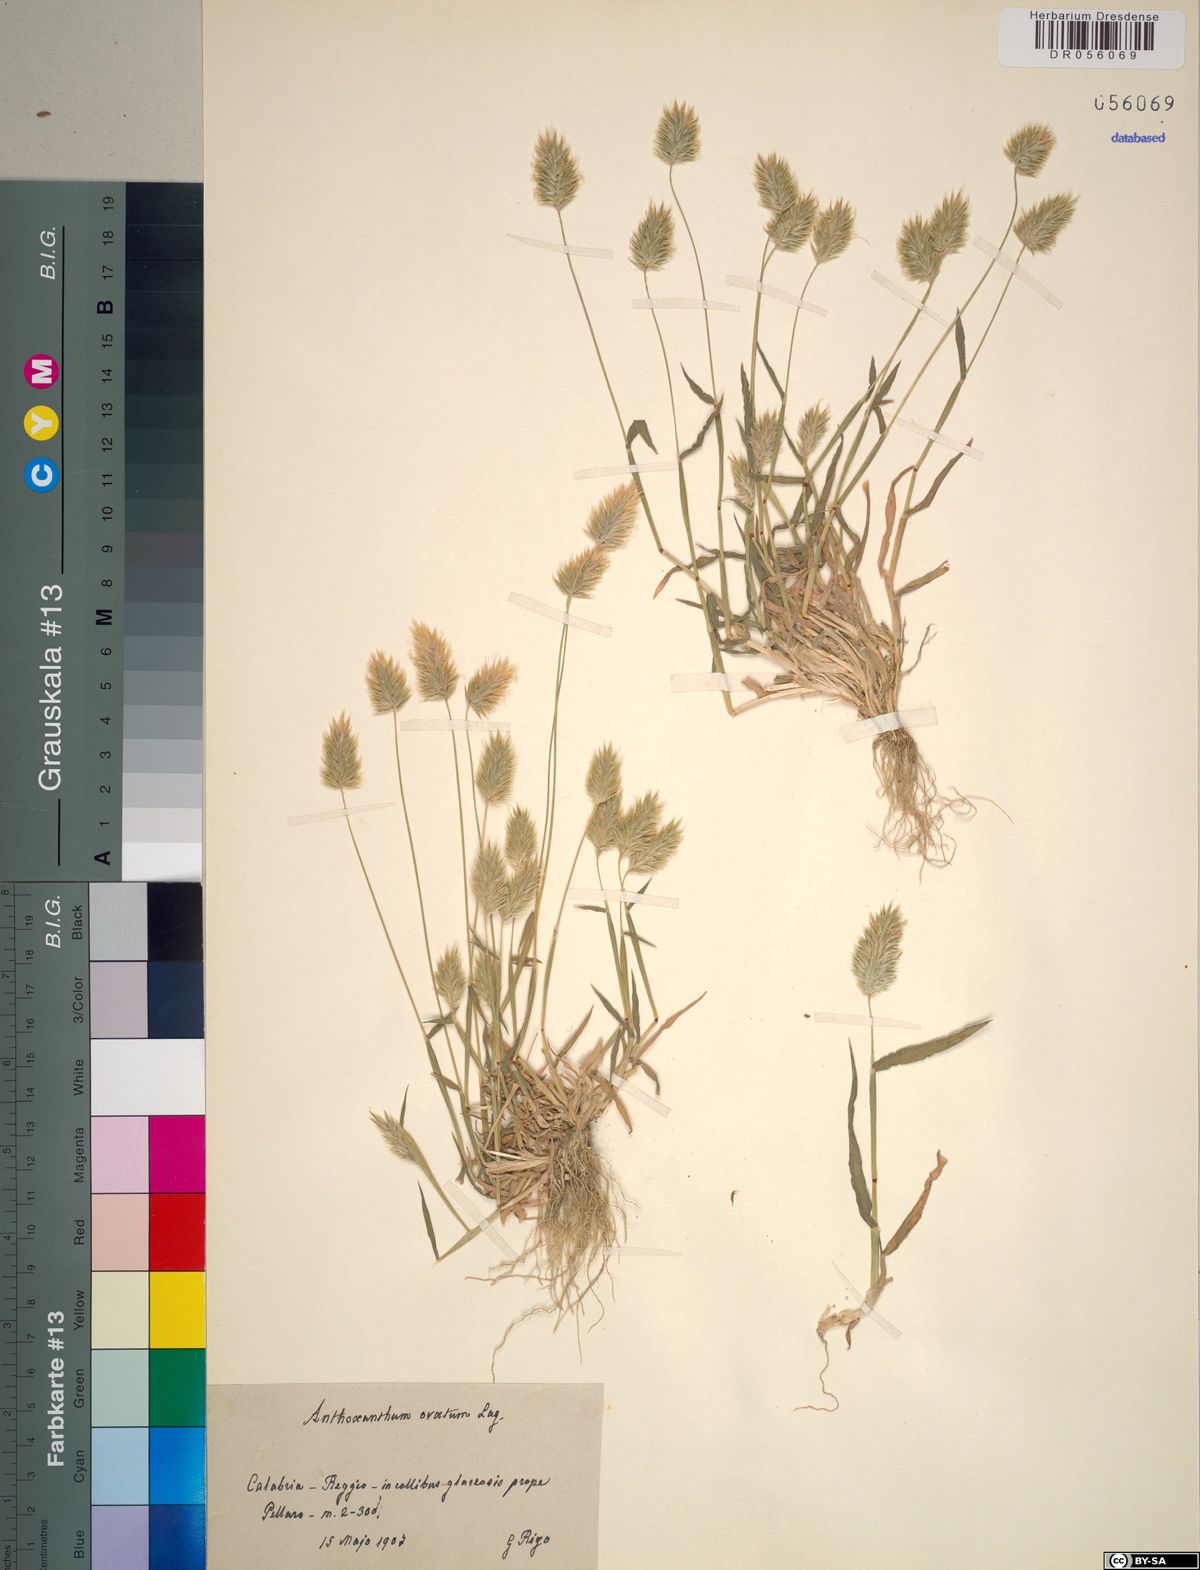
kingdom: Plantae
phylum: Tracheophyta
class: Liliopsida
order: Poales
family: Poaceae
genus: Anthoxanthum
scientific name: Anthoxanthum ovatum
